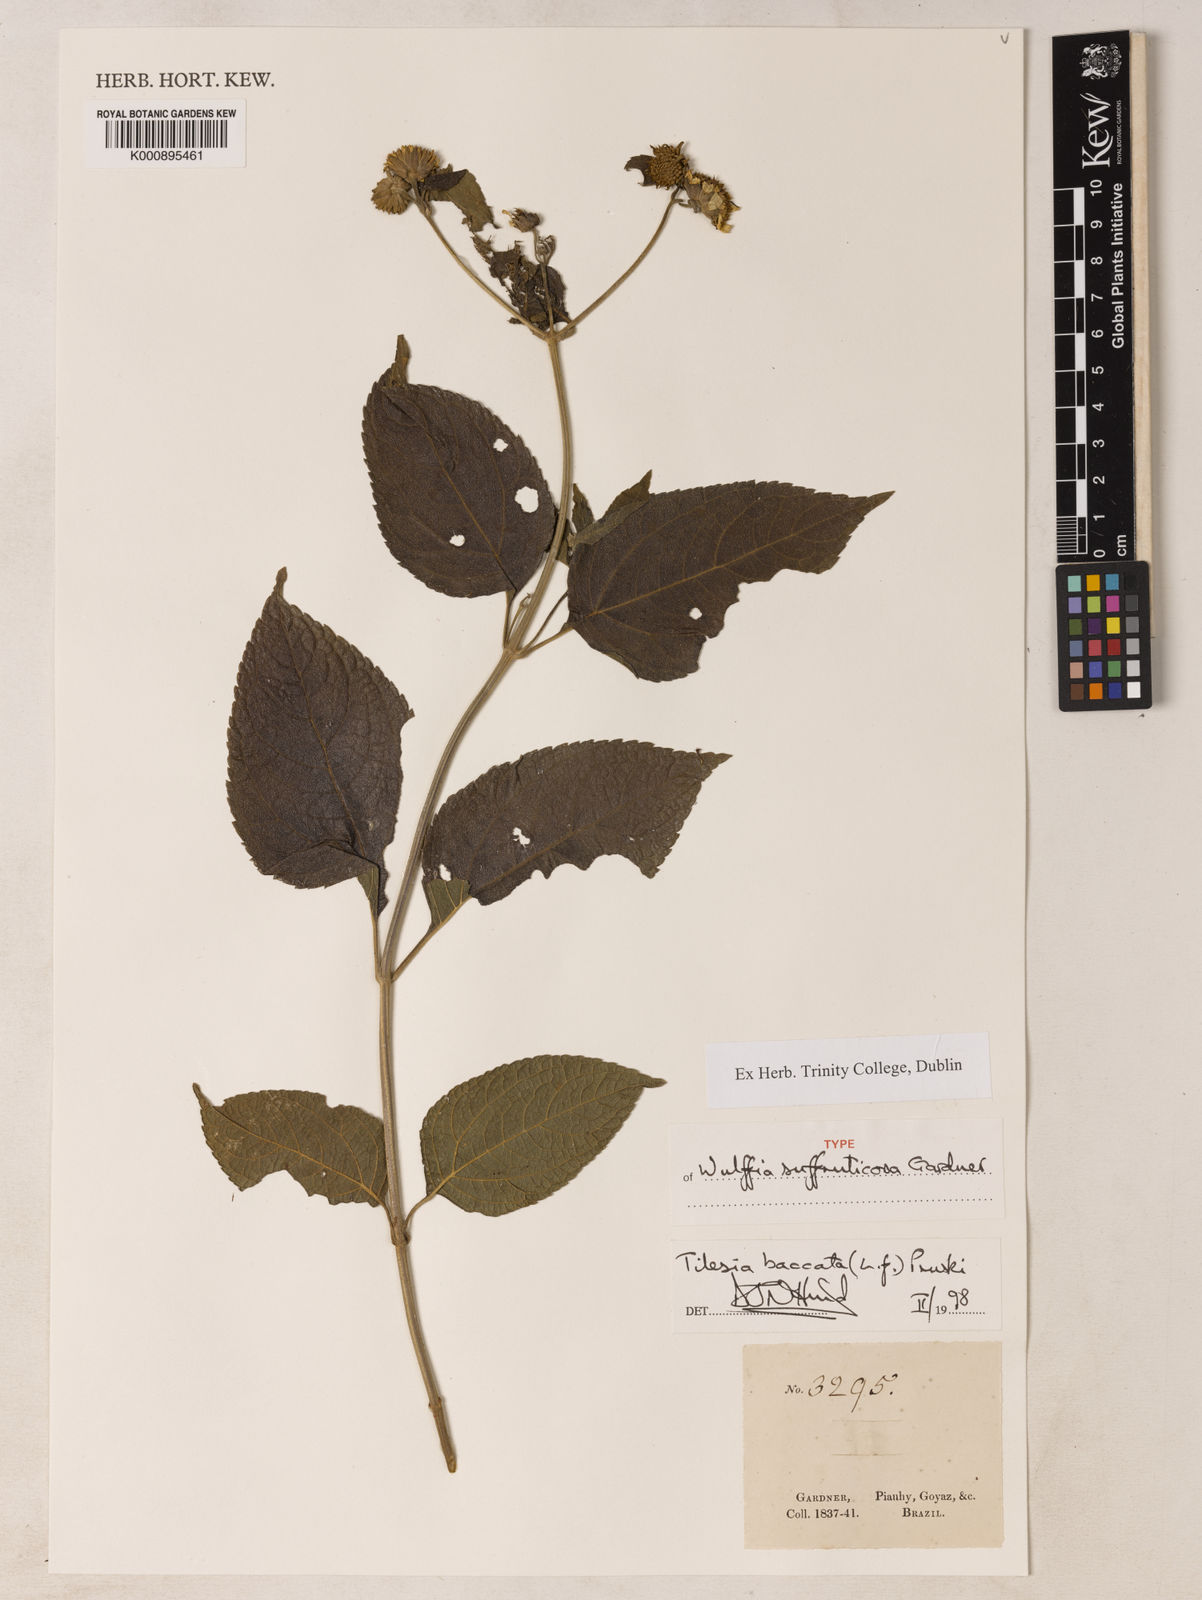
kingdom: Plantae
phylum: Tracheophyta
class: Magnoliopsida
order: Asterales
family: Asteraceae
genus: Tilesia
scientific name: Tilesia baccata
